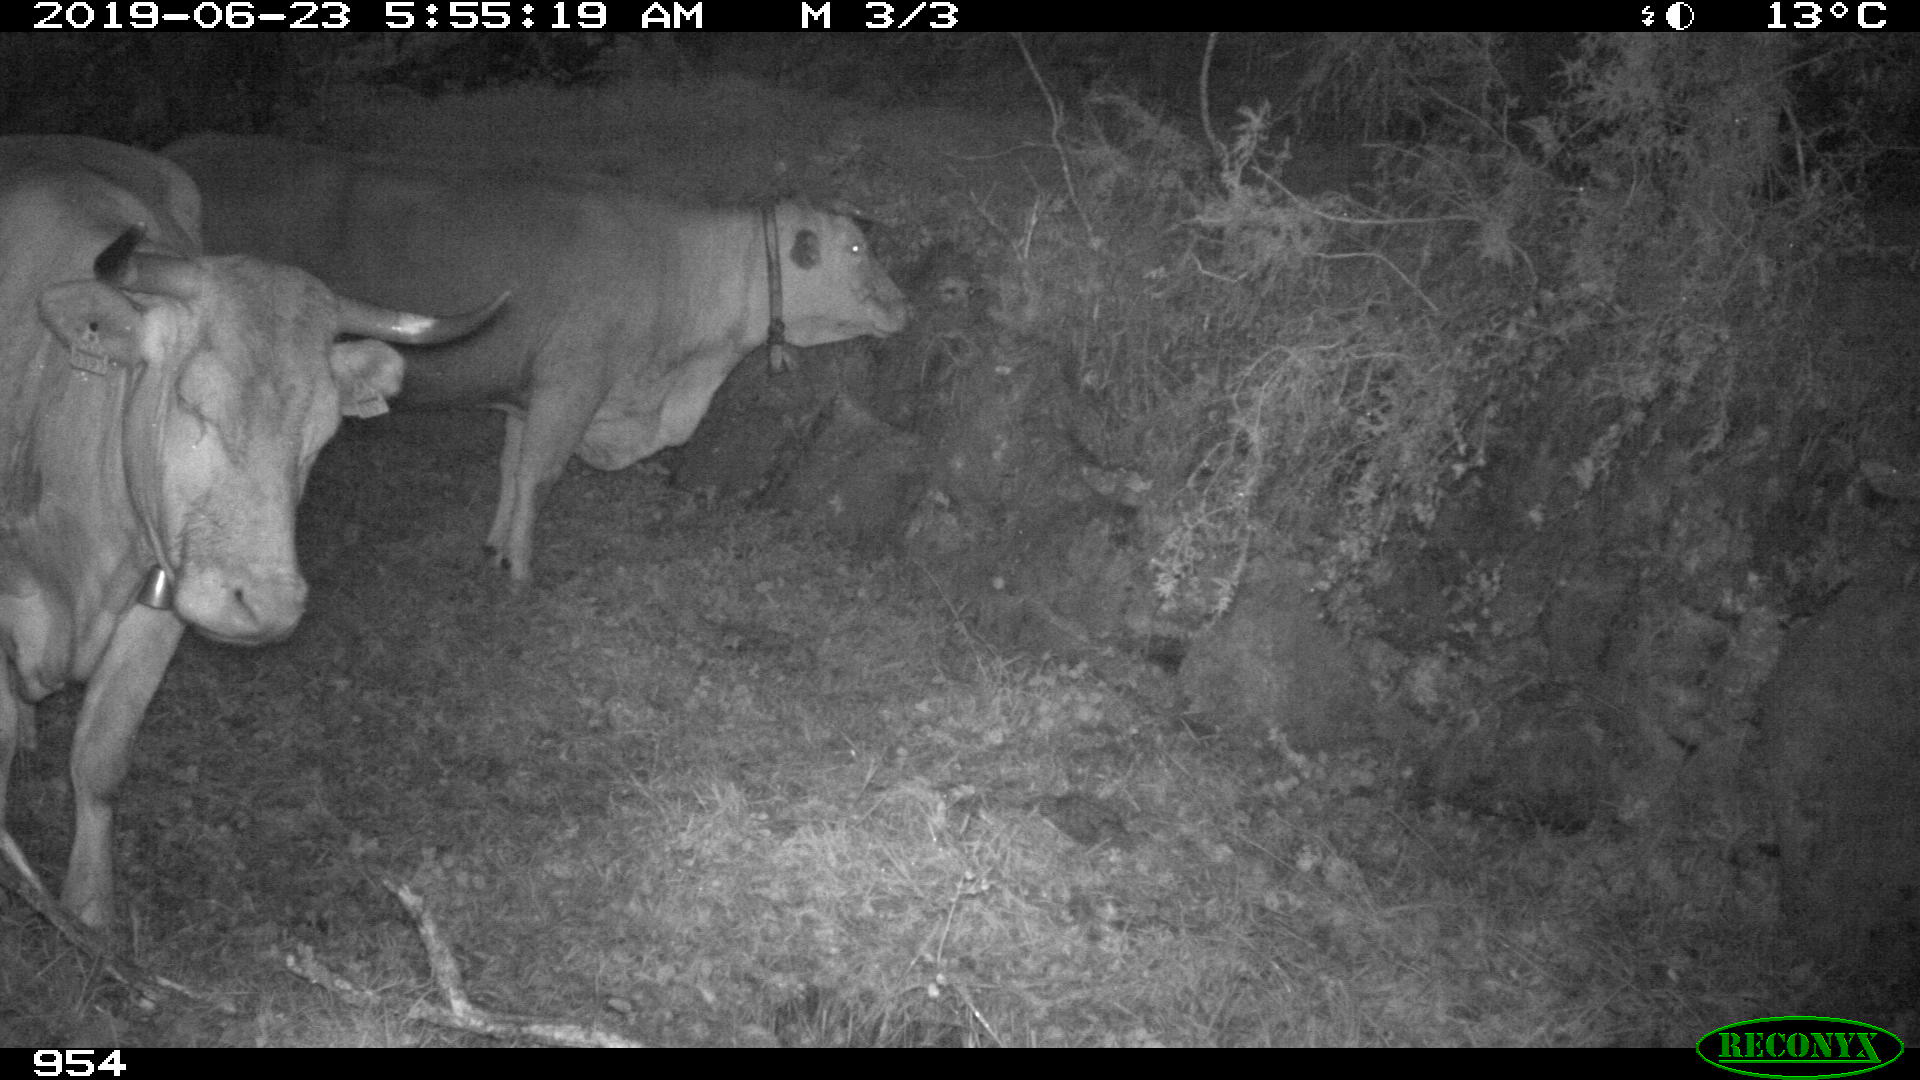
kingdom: Animalia
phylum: Chordata
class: Mammalia
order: Artiodactyla
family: Bovidae
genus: Bos
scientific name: Bos taurus
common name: Domesticated cattle
